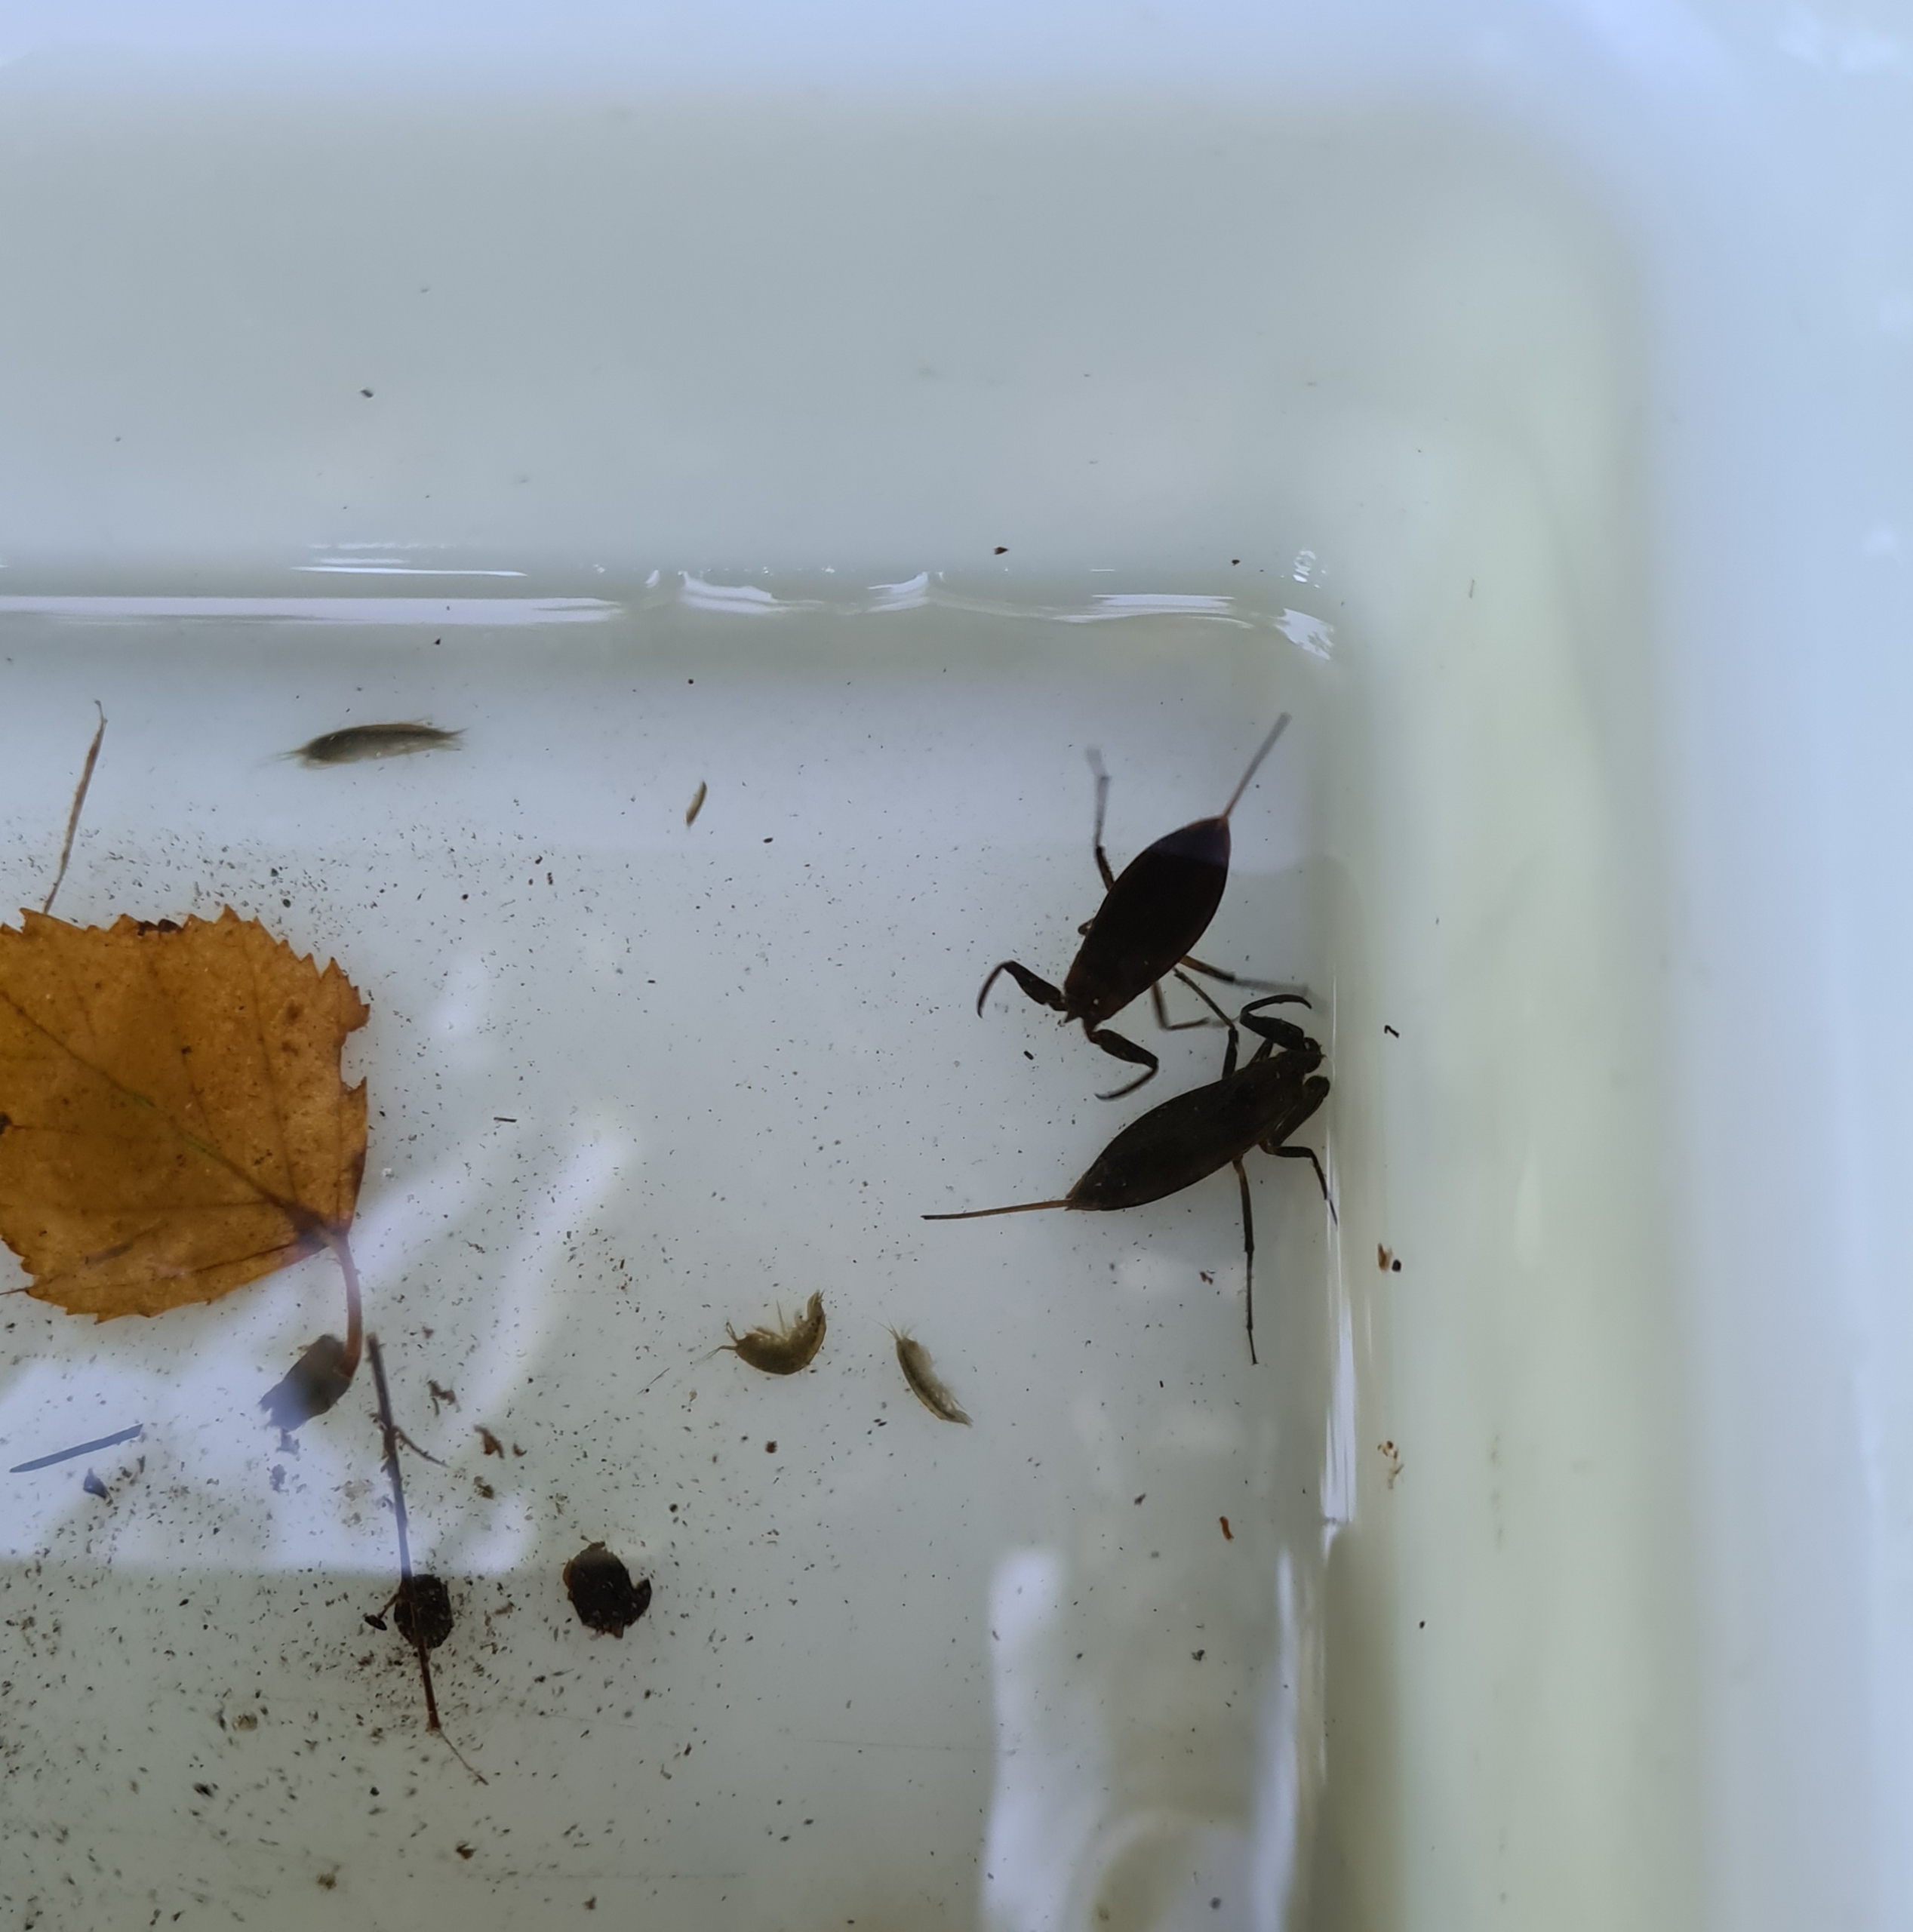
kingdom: Animalia
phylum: Arthropoda
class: Insecta
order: Hemiptera
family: Nepidae
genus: Nepa
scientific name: Nepa cinerea
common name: Skorpiontæge
